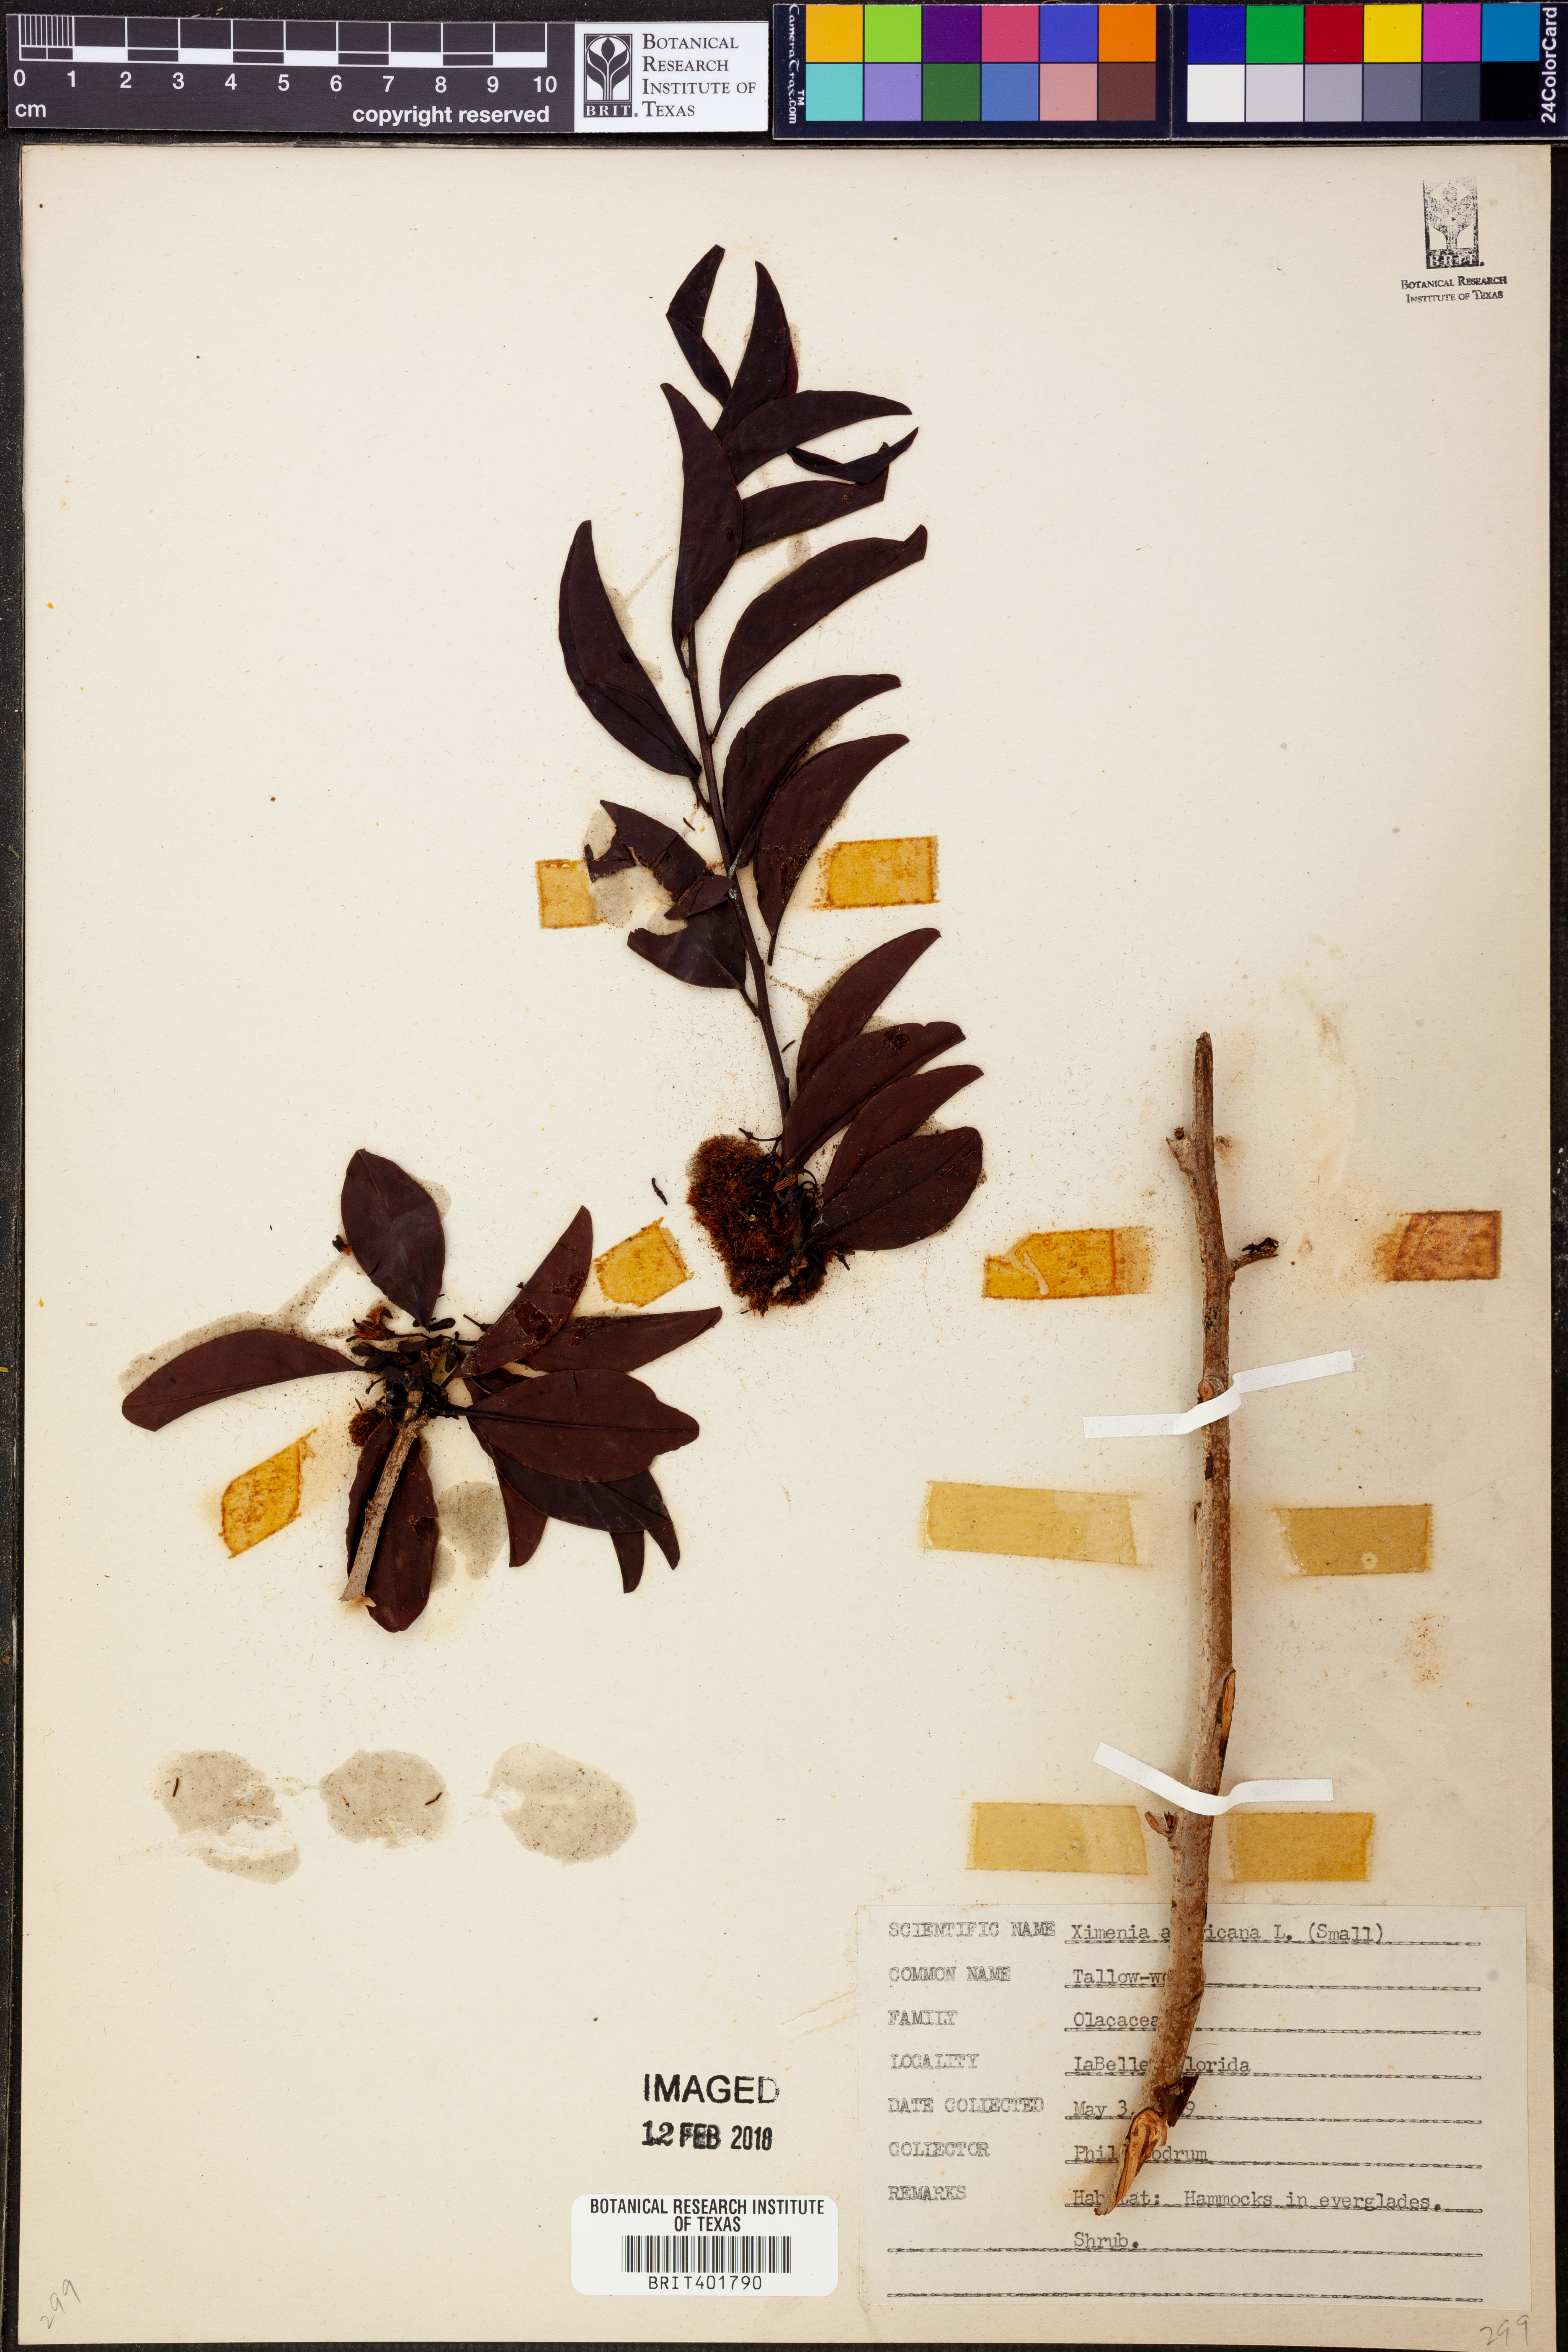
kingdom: Plantae
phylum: Tracheophyta
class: Magnoliopsida
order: Santalales
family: Ximeniaceae
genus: Ximenia
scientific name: Ximenia americana
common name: Tallowwood
